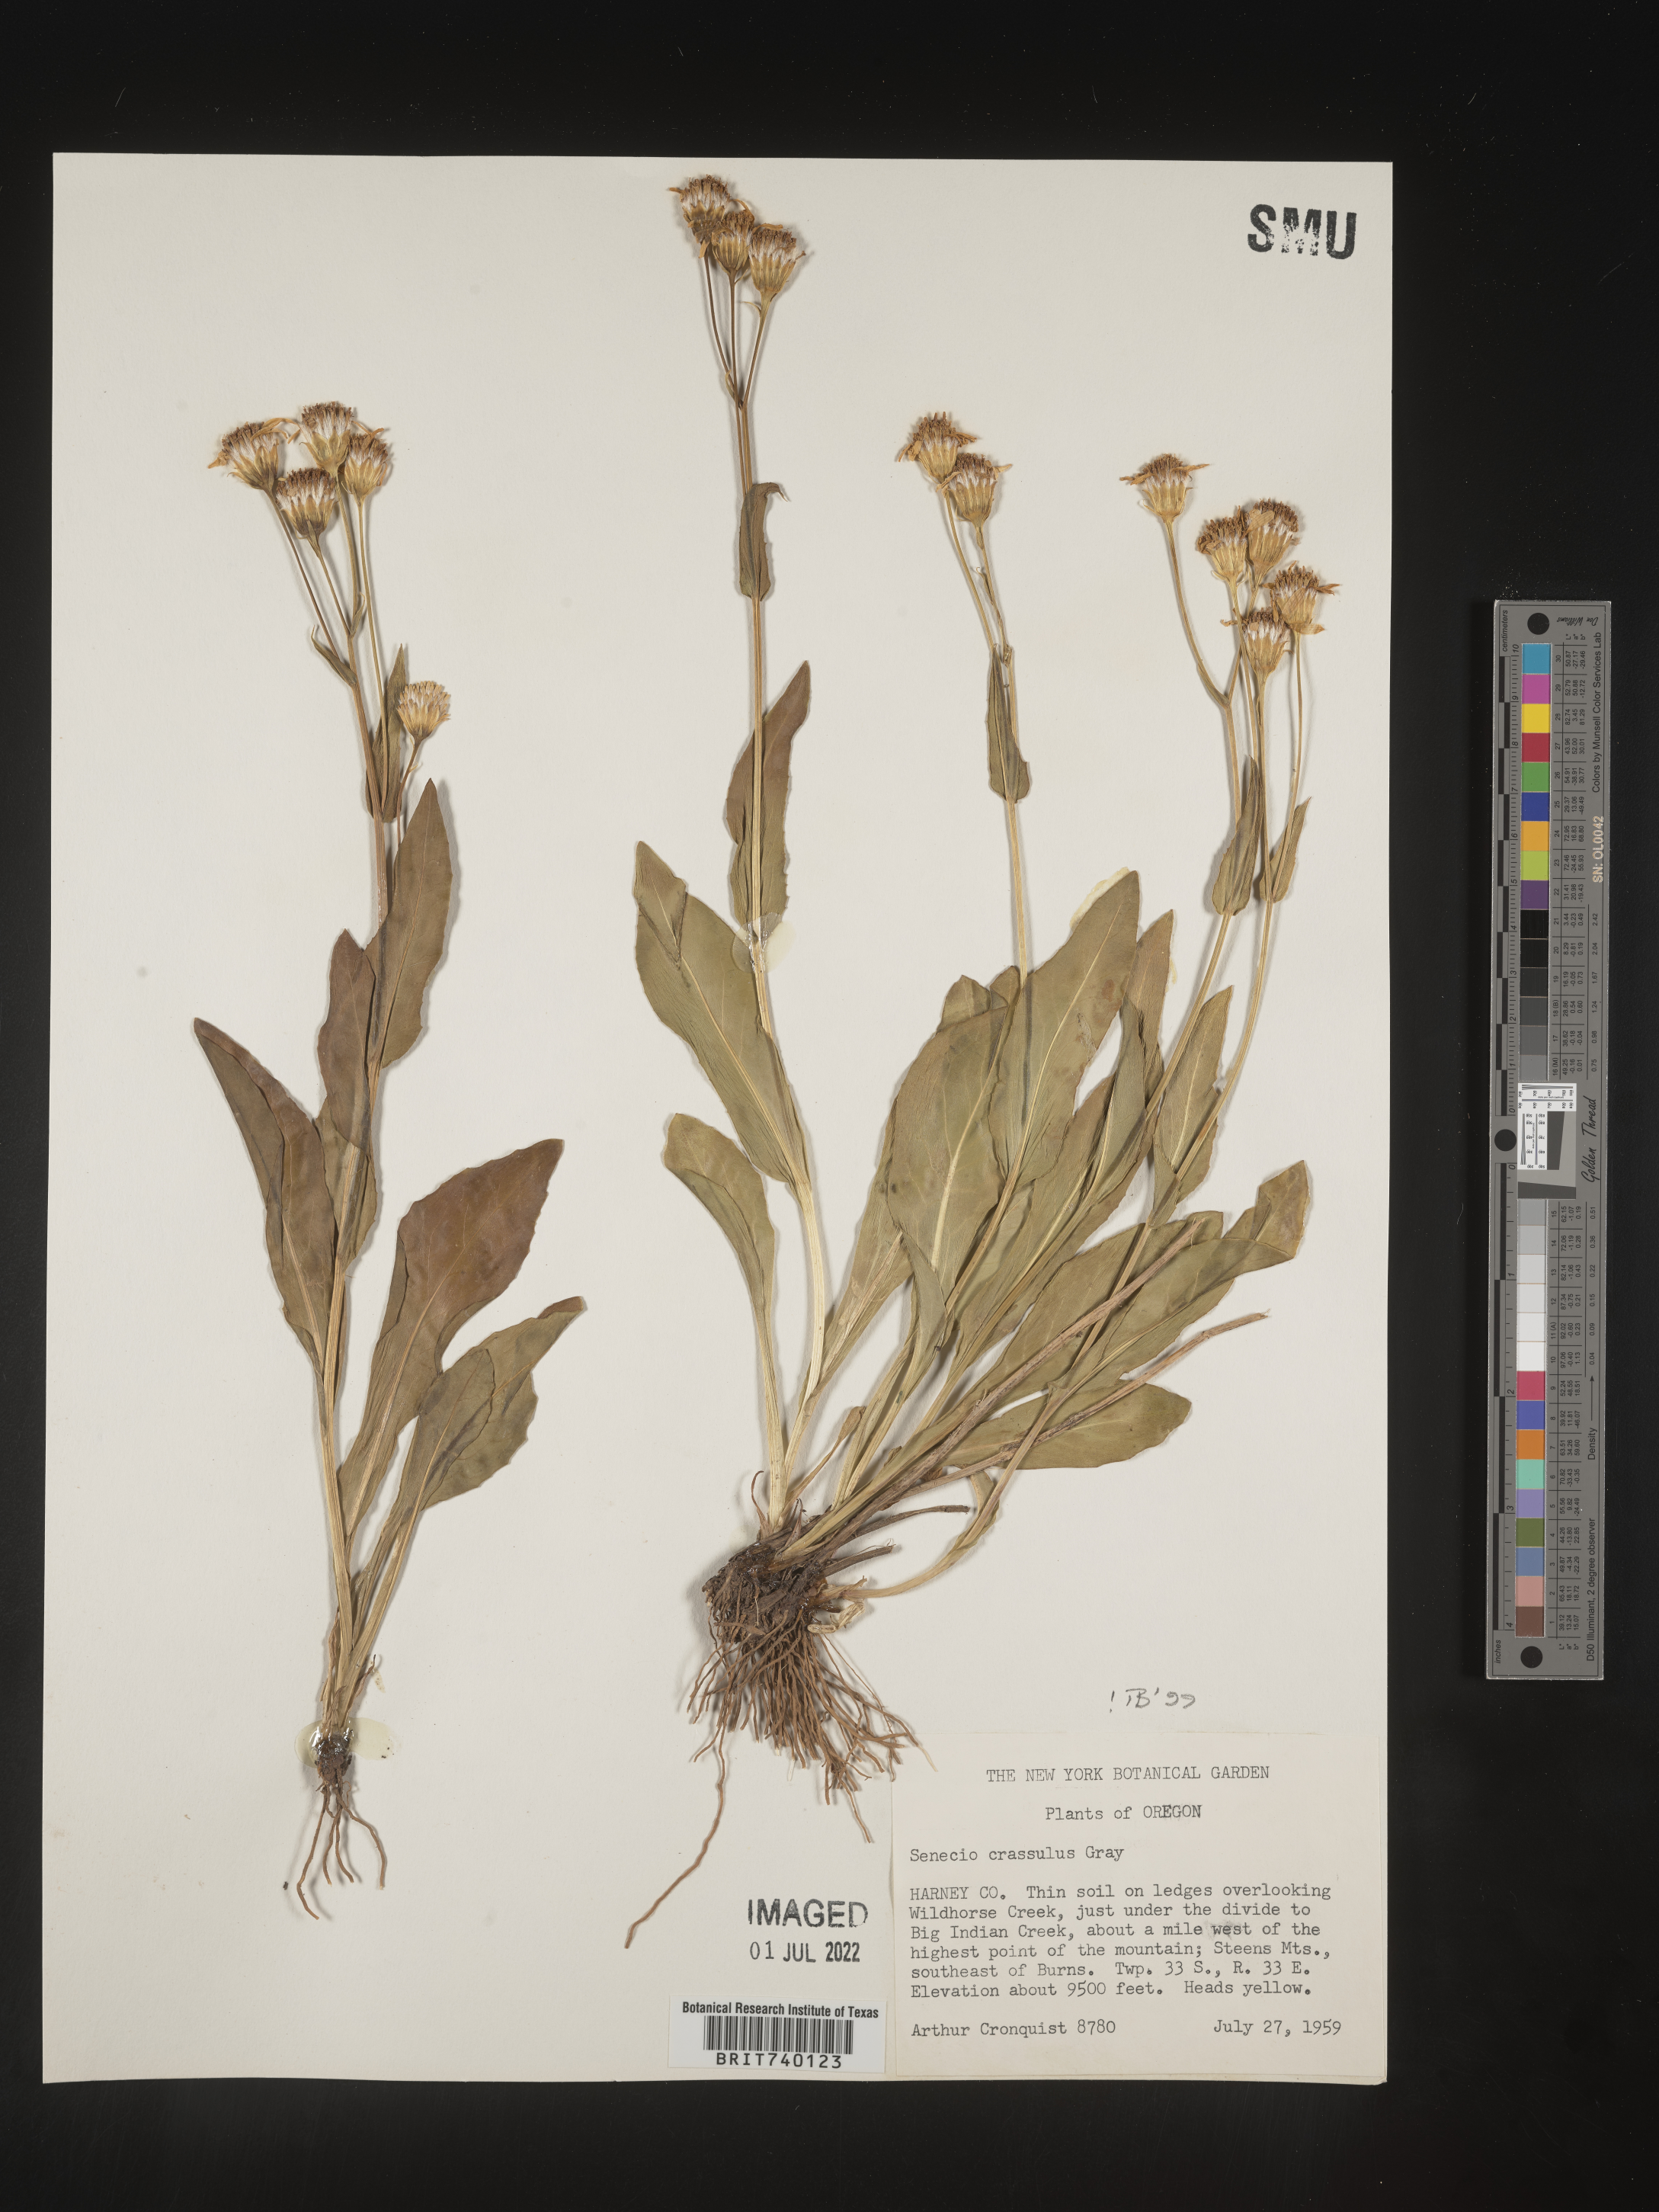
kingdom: Plantae
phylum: Tracheophyta
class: Magnoliopsida
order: Asterales
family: Asteraceae
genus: Senecio
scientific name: Senecio crassulus
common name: Mountain-meadow butterweed
